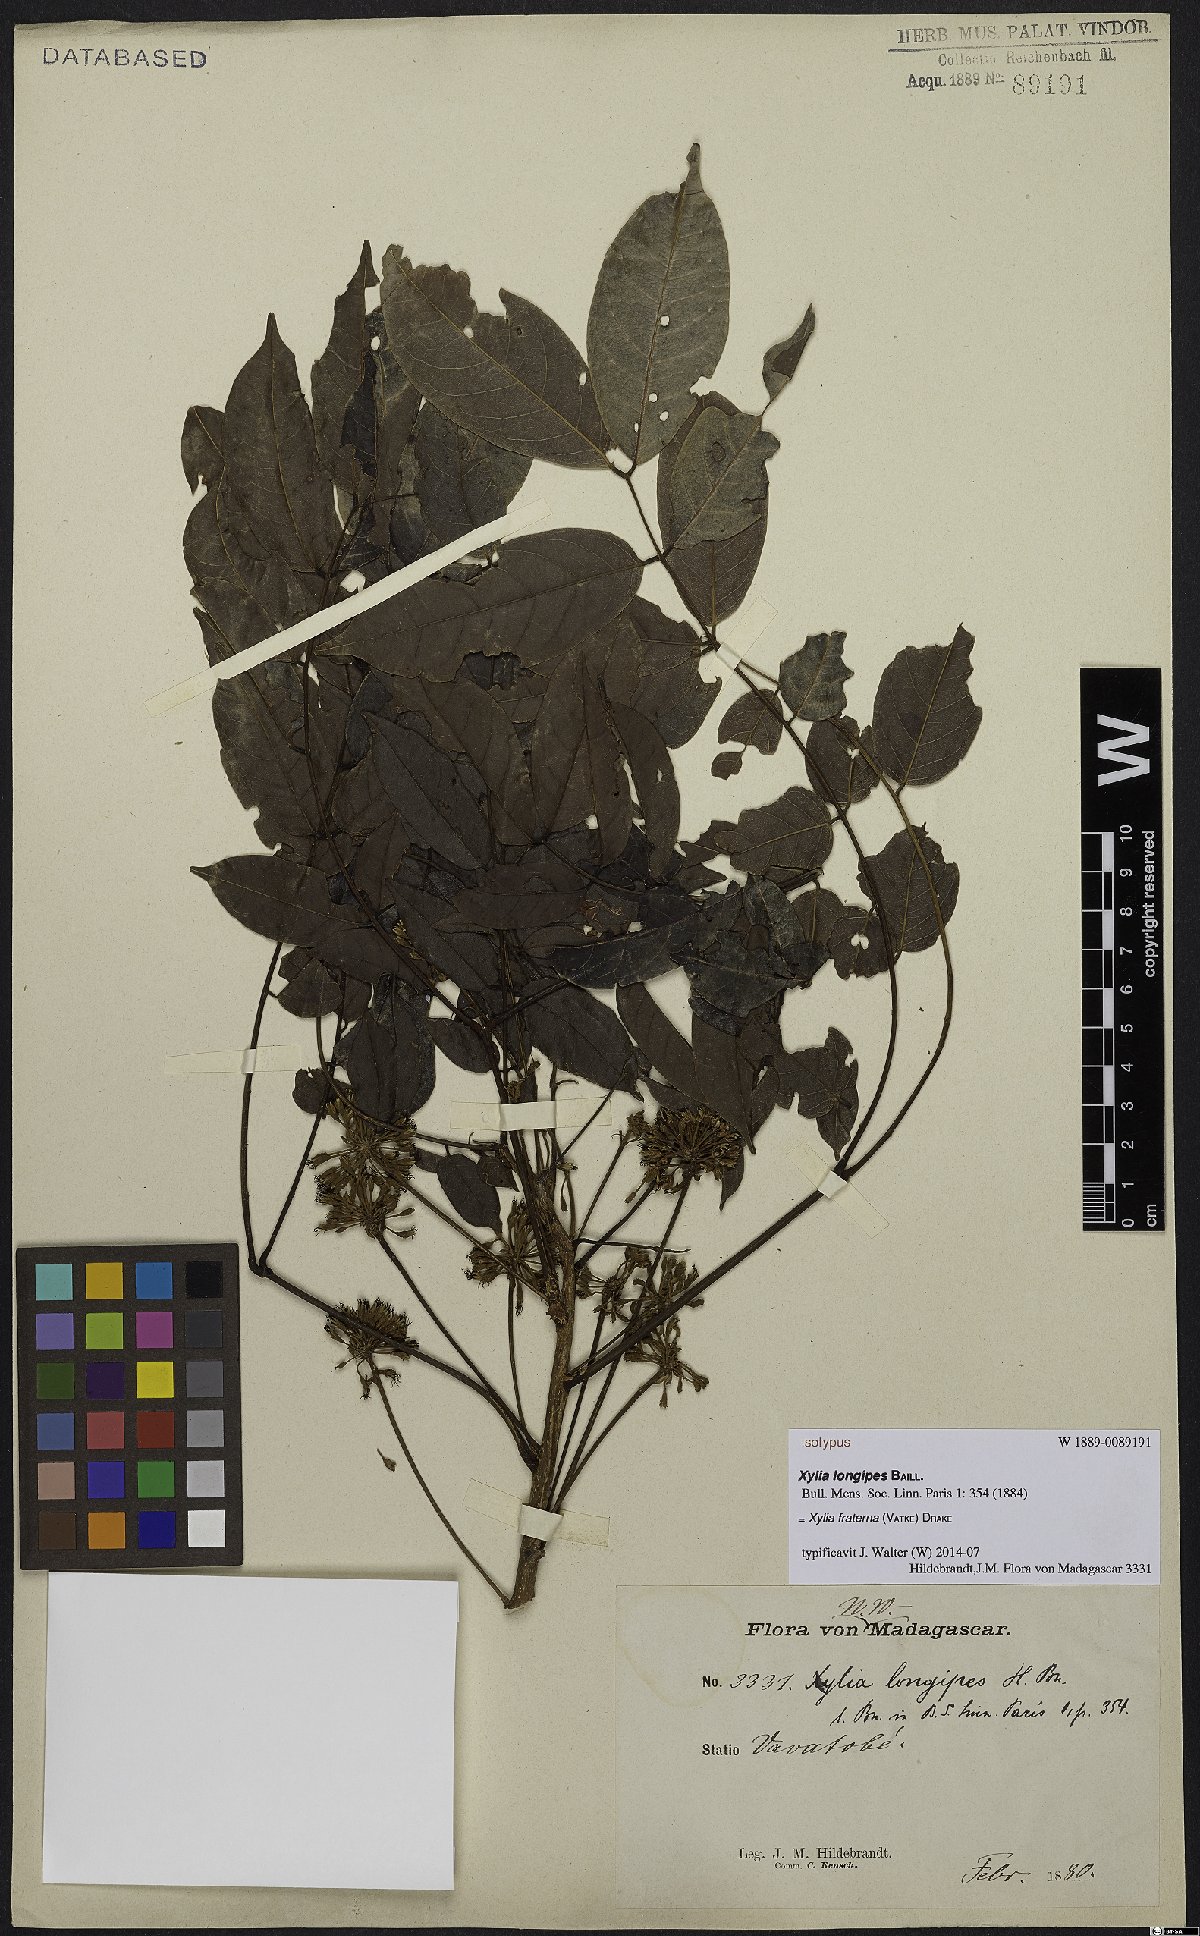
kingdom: Plantae
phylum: Tracheophyta
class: Magnoliopsida
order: Fabales
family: Fabaceae
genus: Xylia
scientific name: Xylia fraterna
